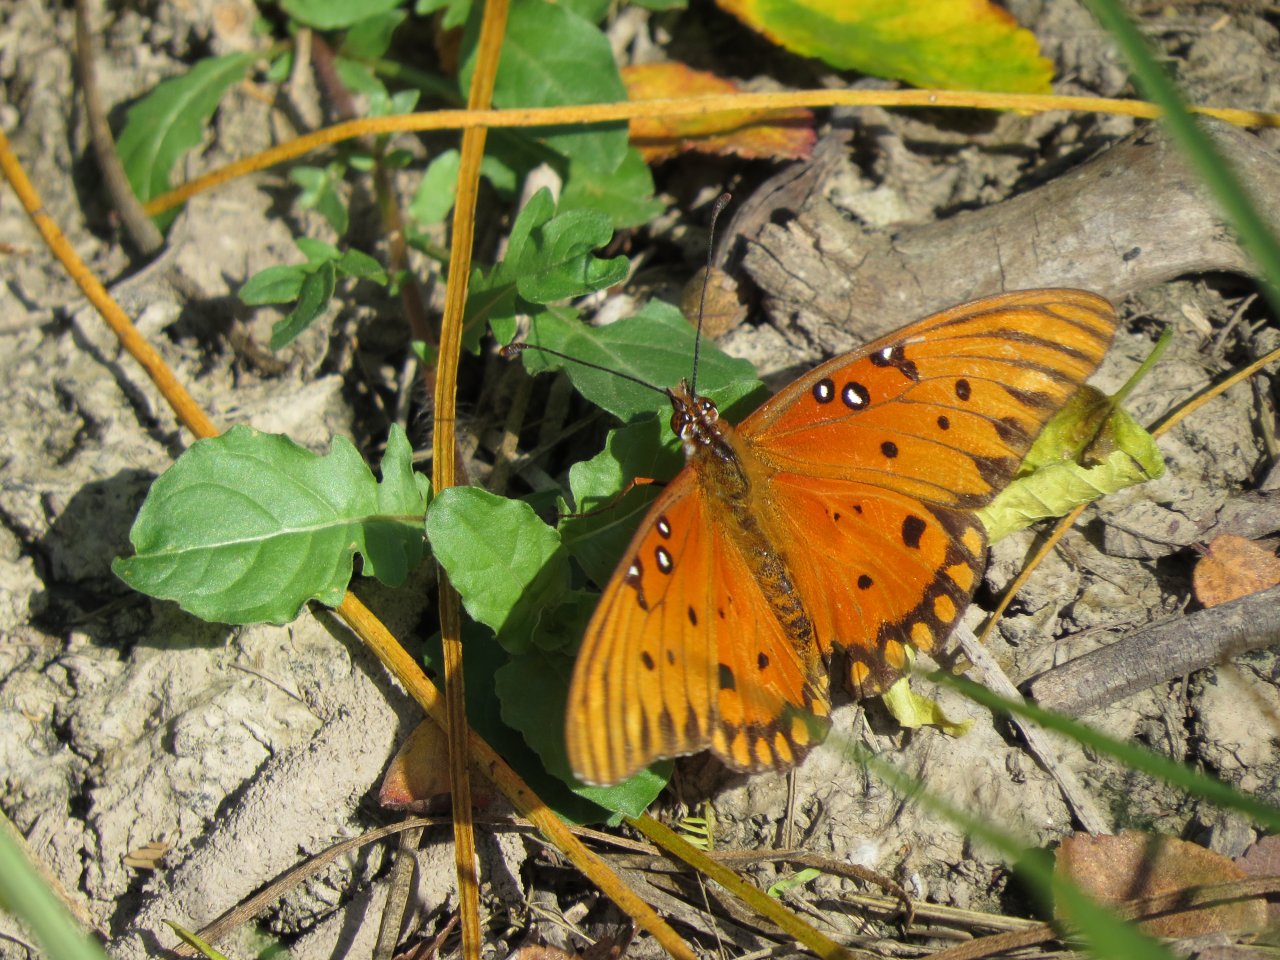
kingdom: Animalia
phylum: Arthropoda
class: Insecta
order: Lepidoptera
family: Nymphalidae
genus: Dione
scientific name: Dione vanillae
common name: Gulf Fritillary
